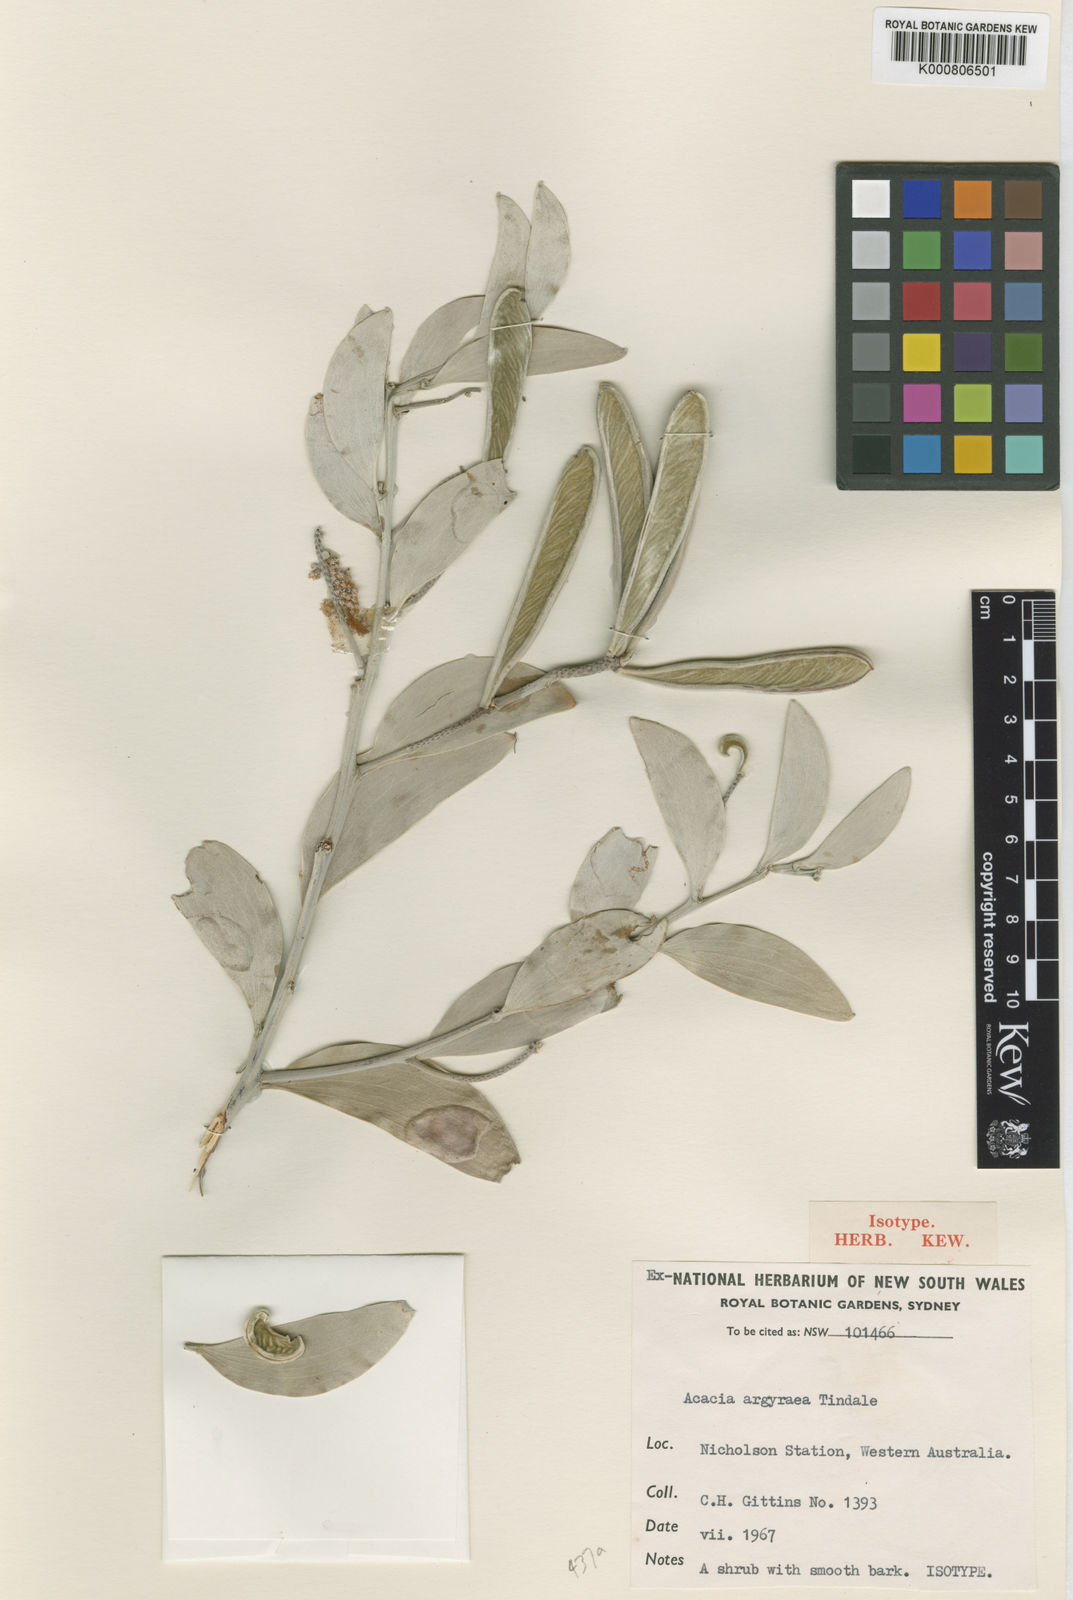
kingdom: Plantae
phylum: Tracheophyta
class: Magnoliopsida
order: Fabales
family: Fabaceae
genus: Acacia
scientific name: Acacia argyraea
